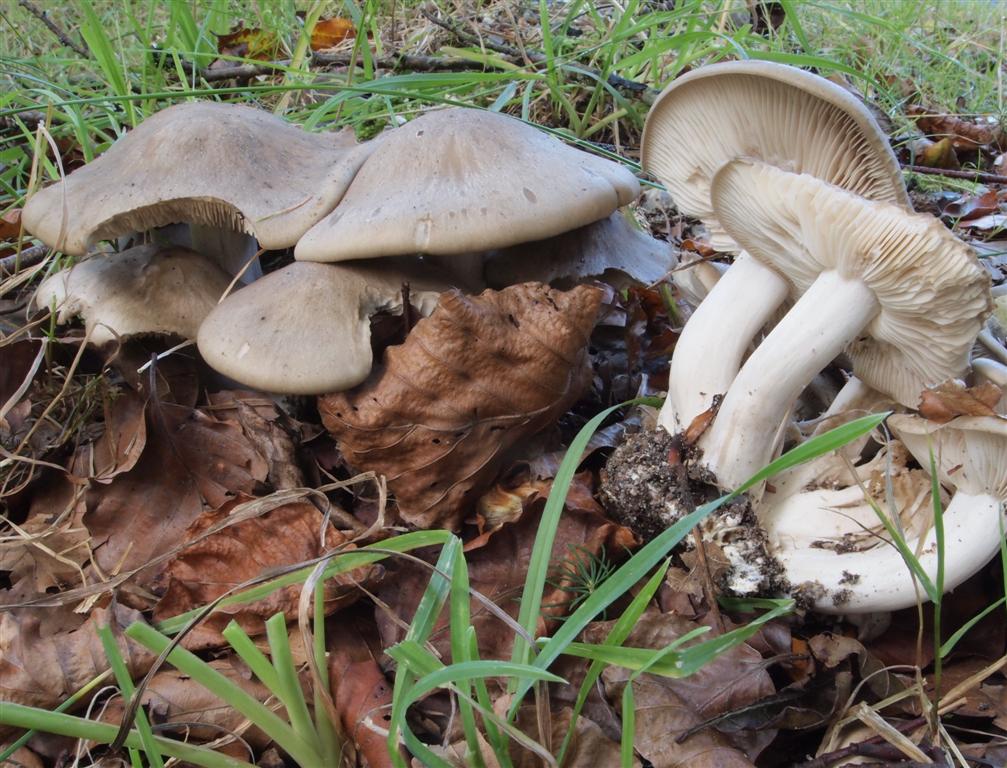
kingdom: Fungi
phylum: Basidiomycota
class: Agaricomycetes
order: Agaricales
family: Lyophyllaceae
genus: Lyophyllum
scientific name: Lyophyllum decastes
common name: Clustered domecap
